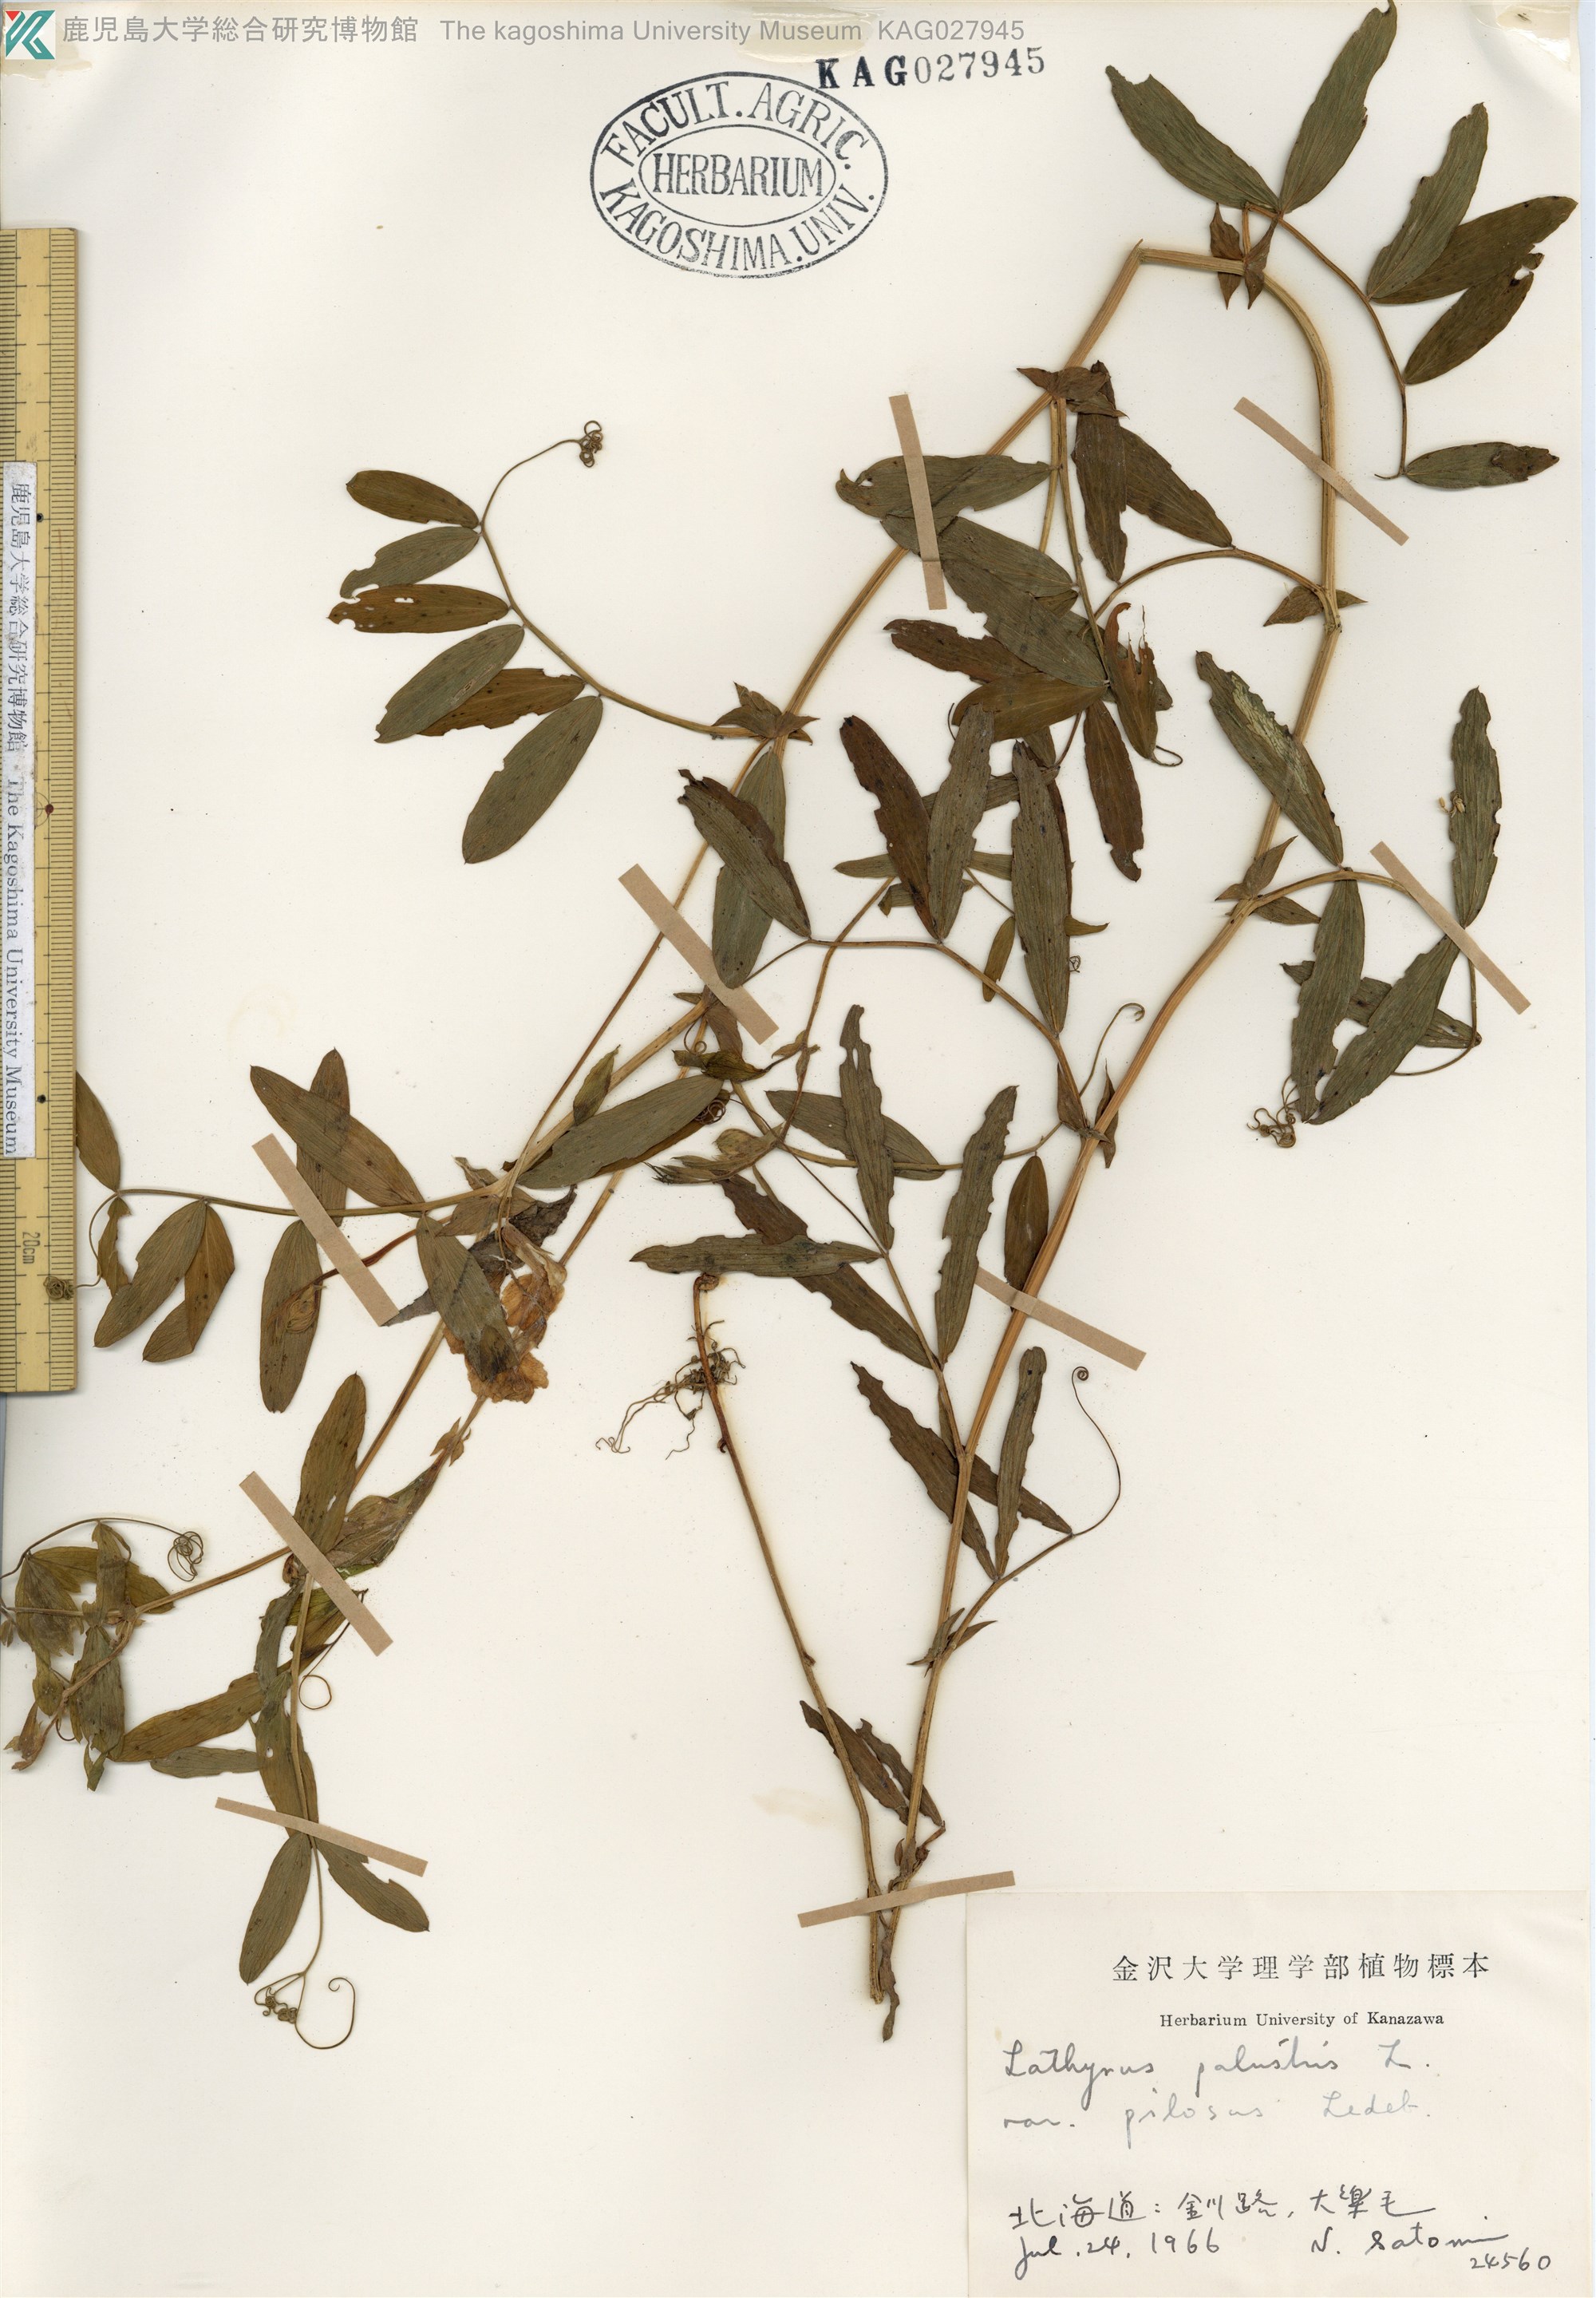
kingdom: Plantae
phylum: Tracheophyta
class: Magnoliopsida
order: Fabales
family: Fabaceae
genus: Lathyrus
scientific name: Lathyrus palustris
